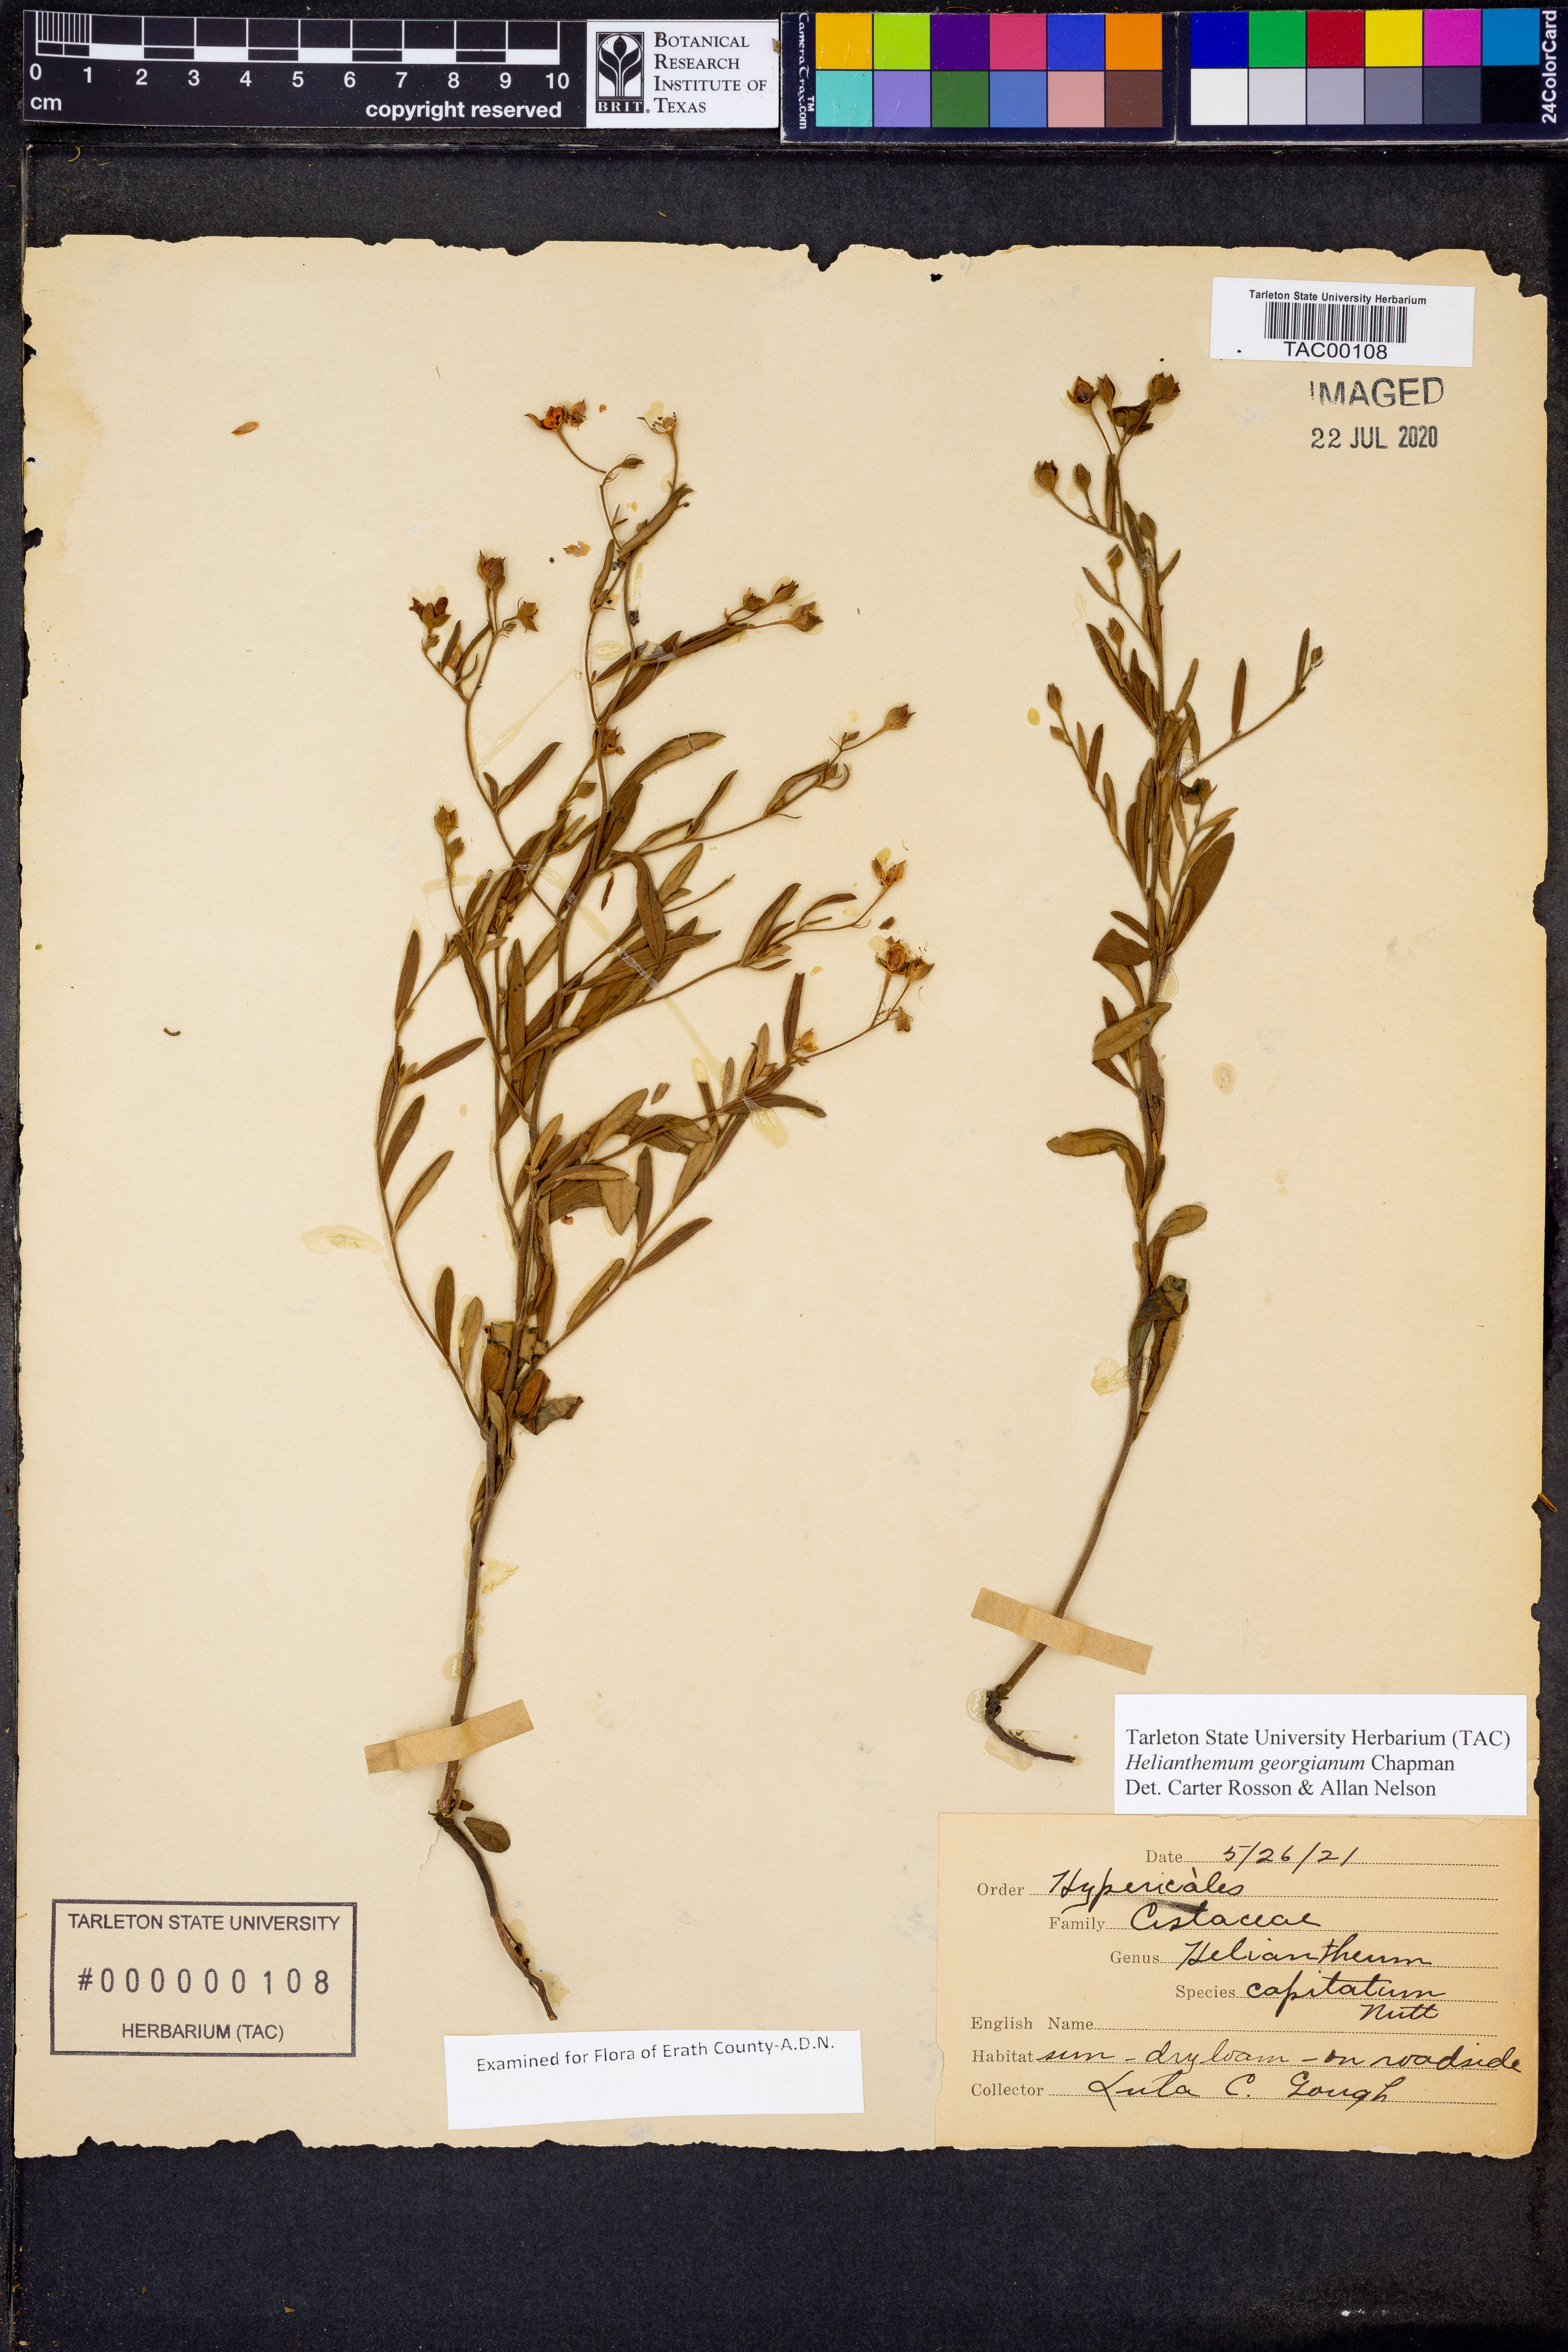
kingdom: Plantae
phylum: Tracheophyta
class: Magnoliopsida
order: Malvales
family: Cistaceae
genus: Crocanthemum
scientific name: Crocanthemum georgianum
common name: Georgia frostweed
